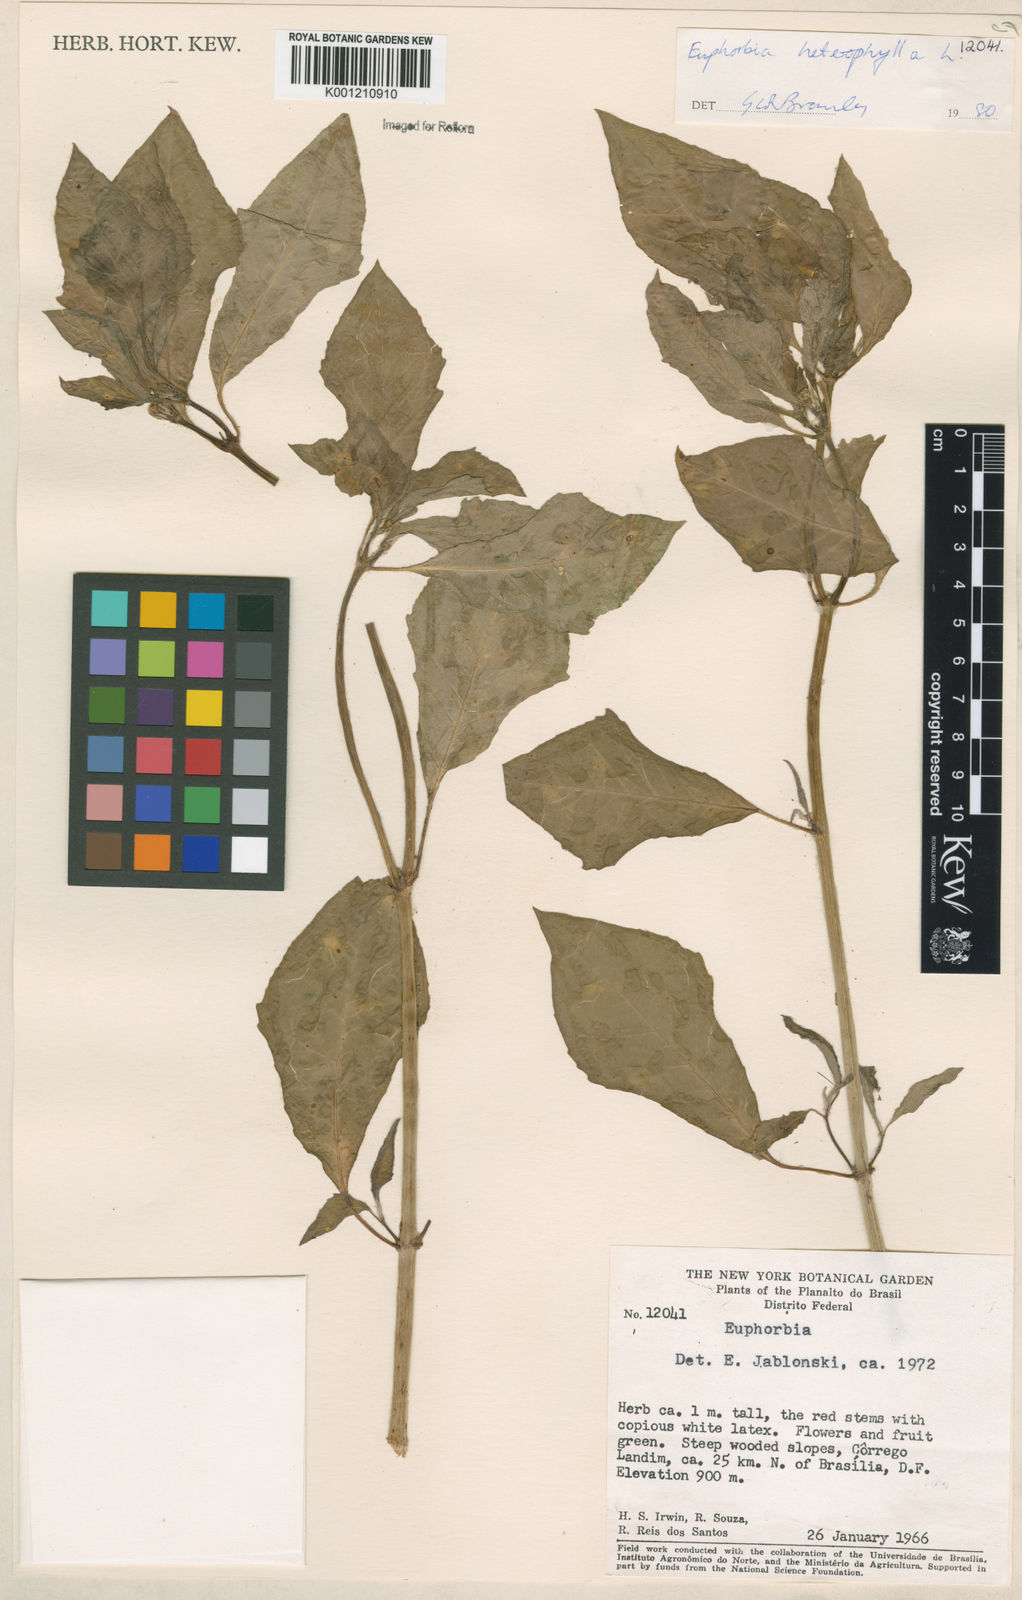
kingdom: Plantae
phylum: Tracheophyta
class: Magnoliopsida
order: Malpighiales
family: Euphorbiaceae
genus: Euphorbia
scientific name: Euphorbia heterophylla
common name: Mexican fireplant
